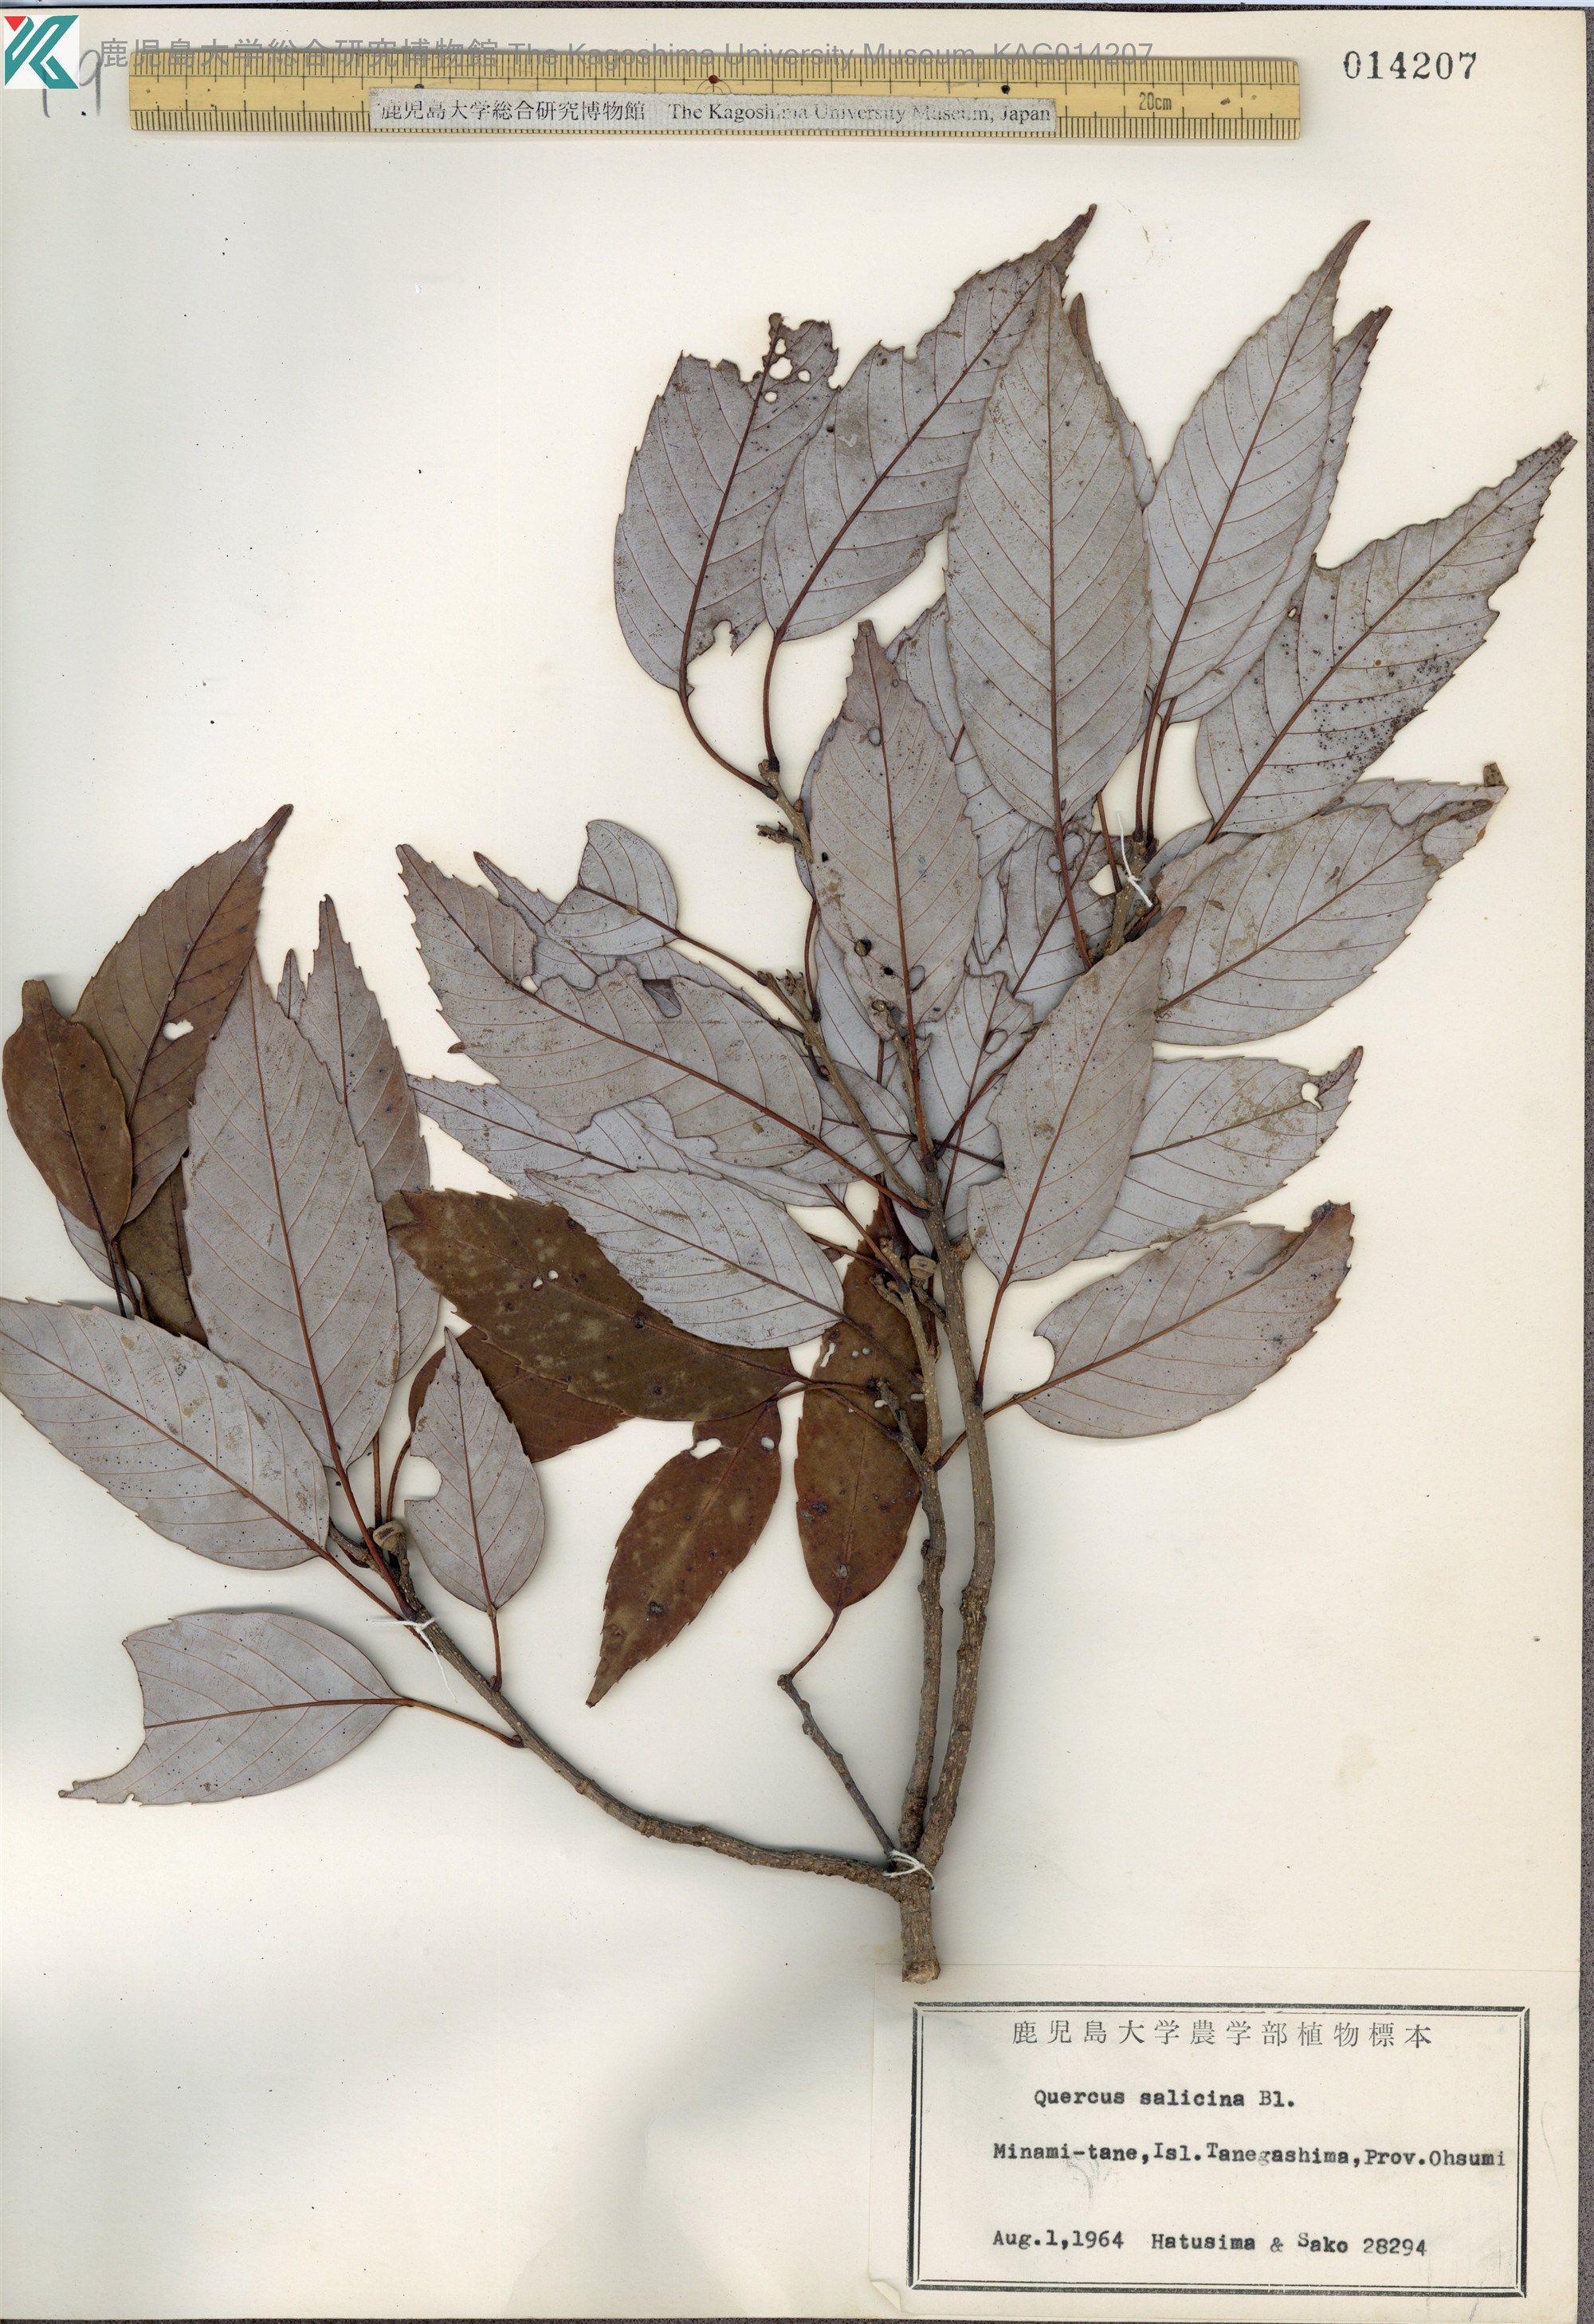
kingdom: Plantae
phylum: Tracheophyta
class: Magnoliopsida
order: Fagales
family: Fagaceae
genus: Quercus
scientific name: Quercus salicina
